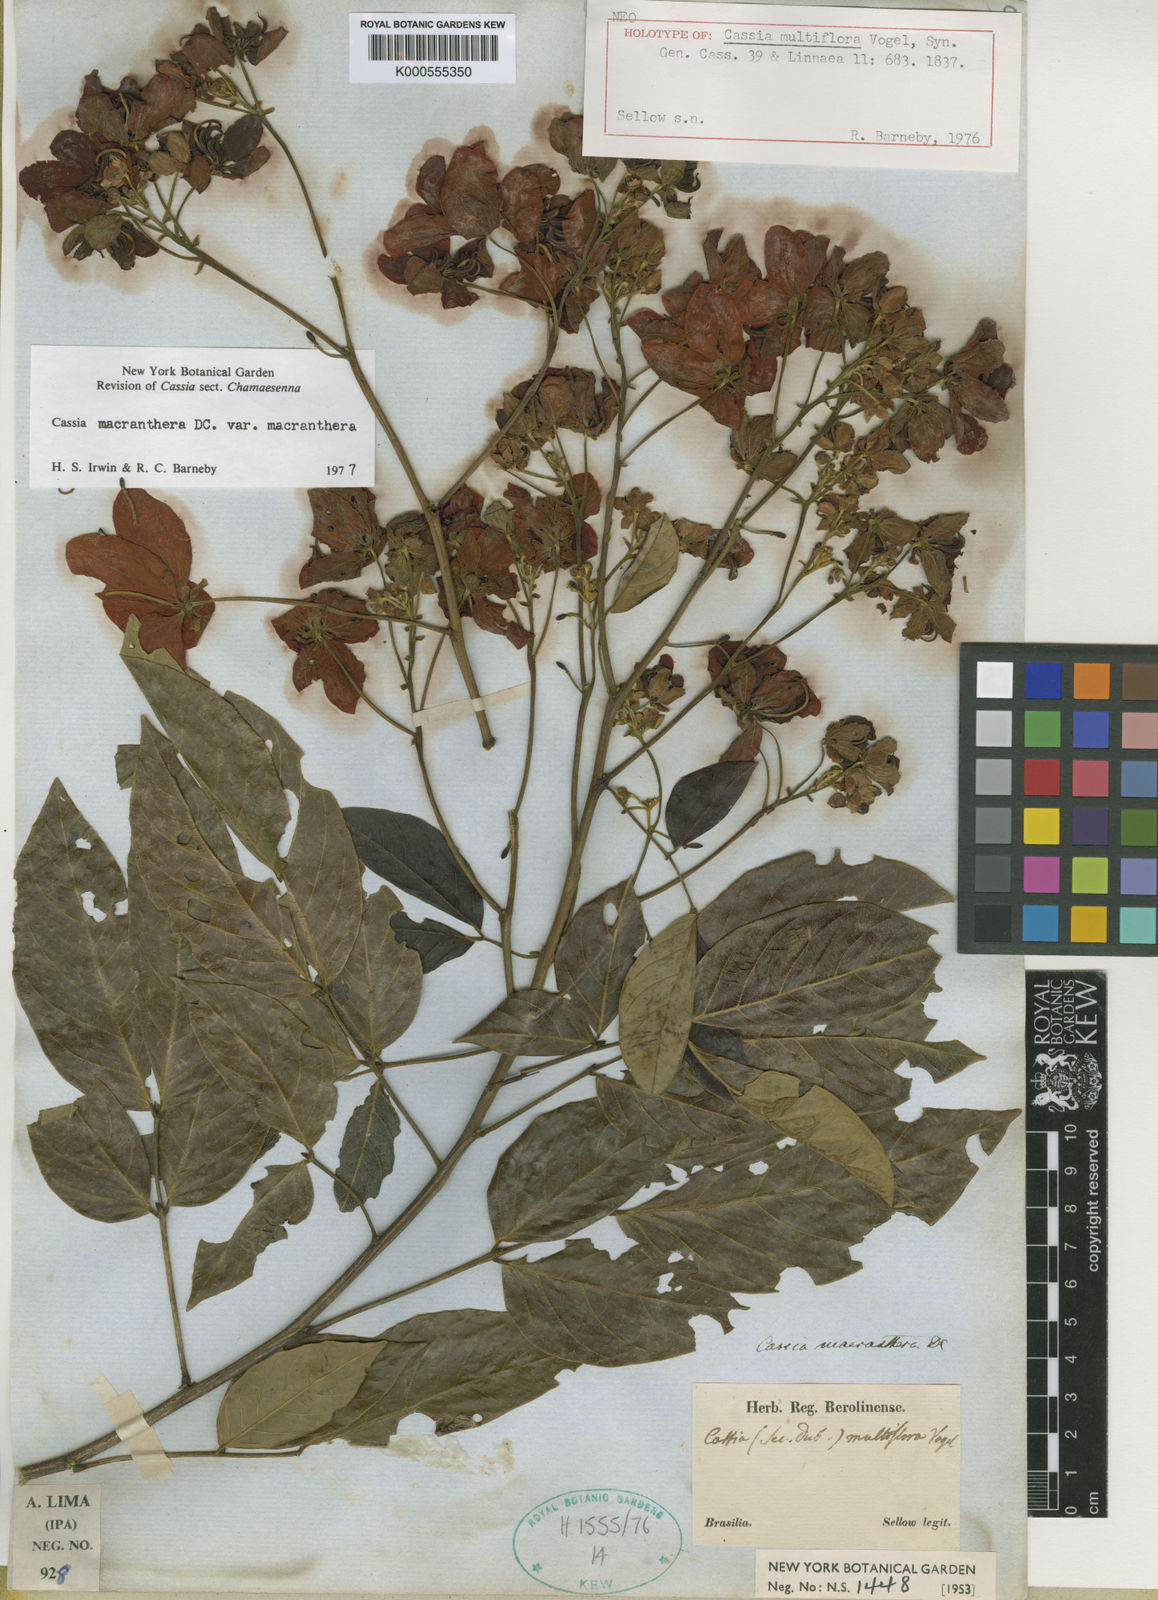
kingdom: Plantae
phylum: Tracheophyta
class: Magnoliopsida
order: Fabales
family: Fabaceae
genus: Senna
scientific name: Senna macranthera
